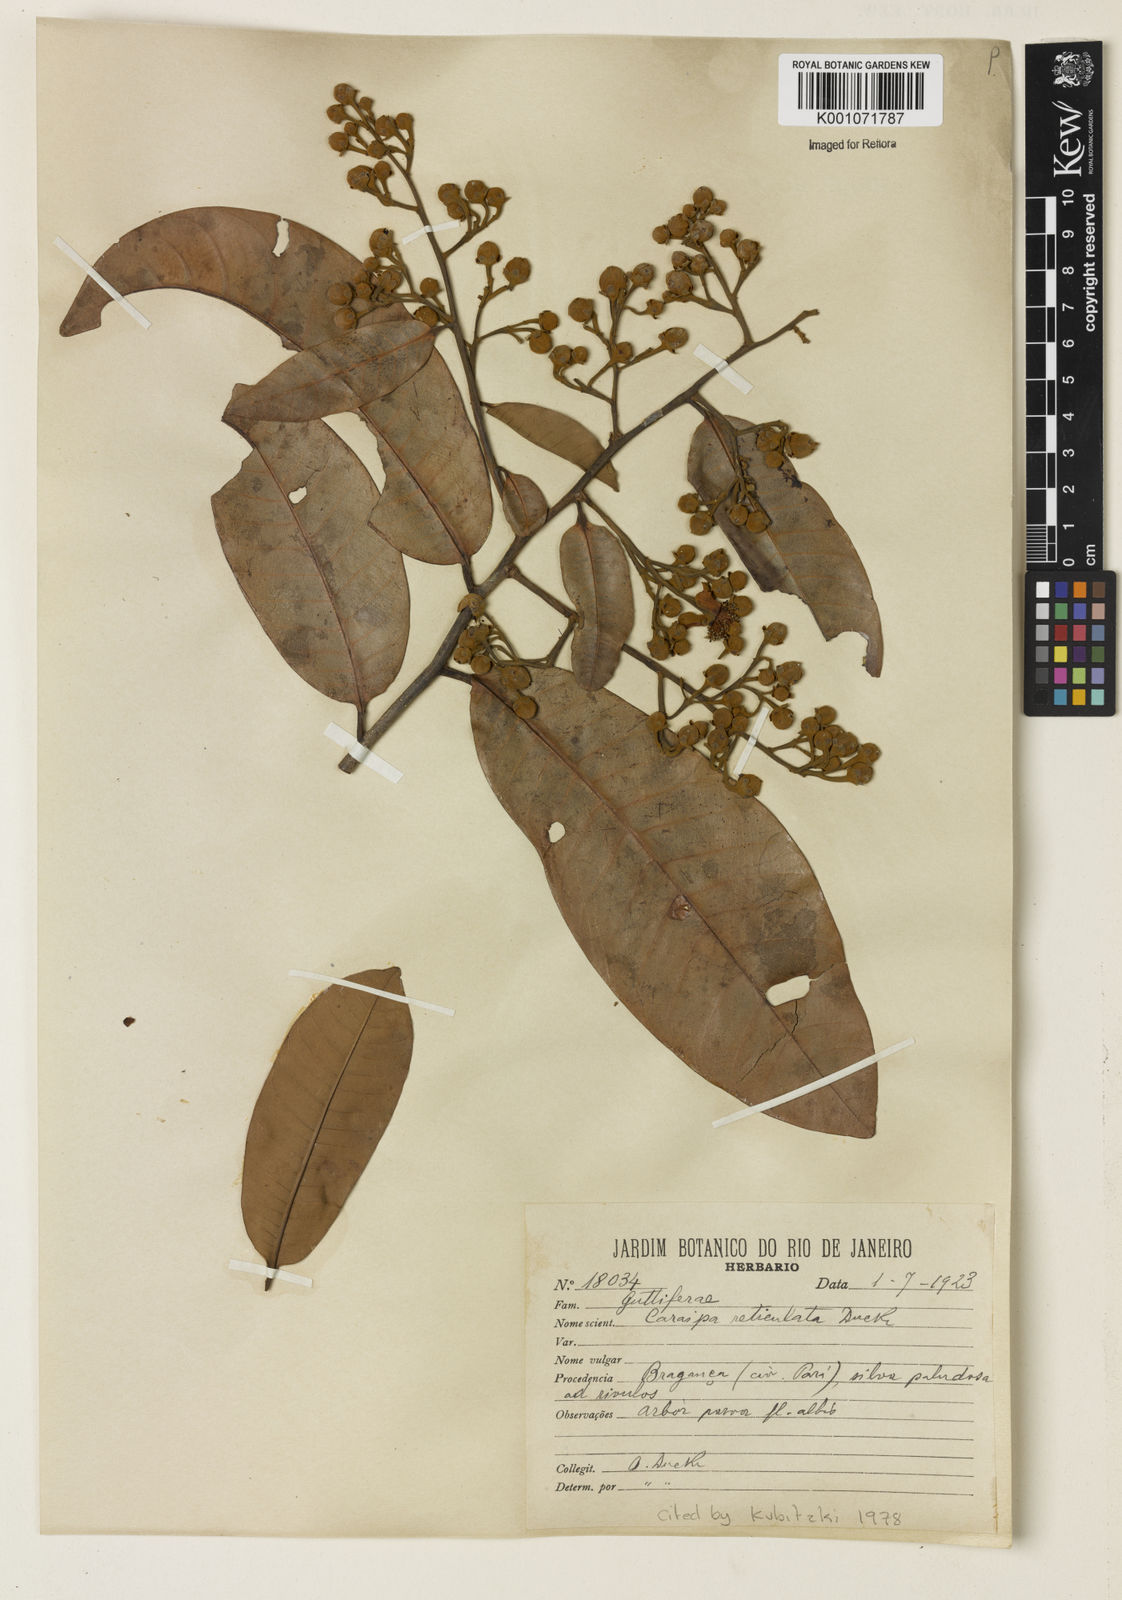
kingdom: Plantae
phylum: Tracheophyta
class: Magnoliopsida
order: Malpighiales
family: Calophyllaceae
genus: Caraipa
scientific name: Caraipa punctulata
